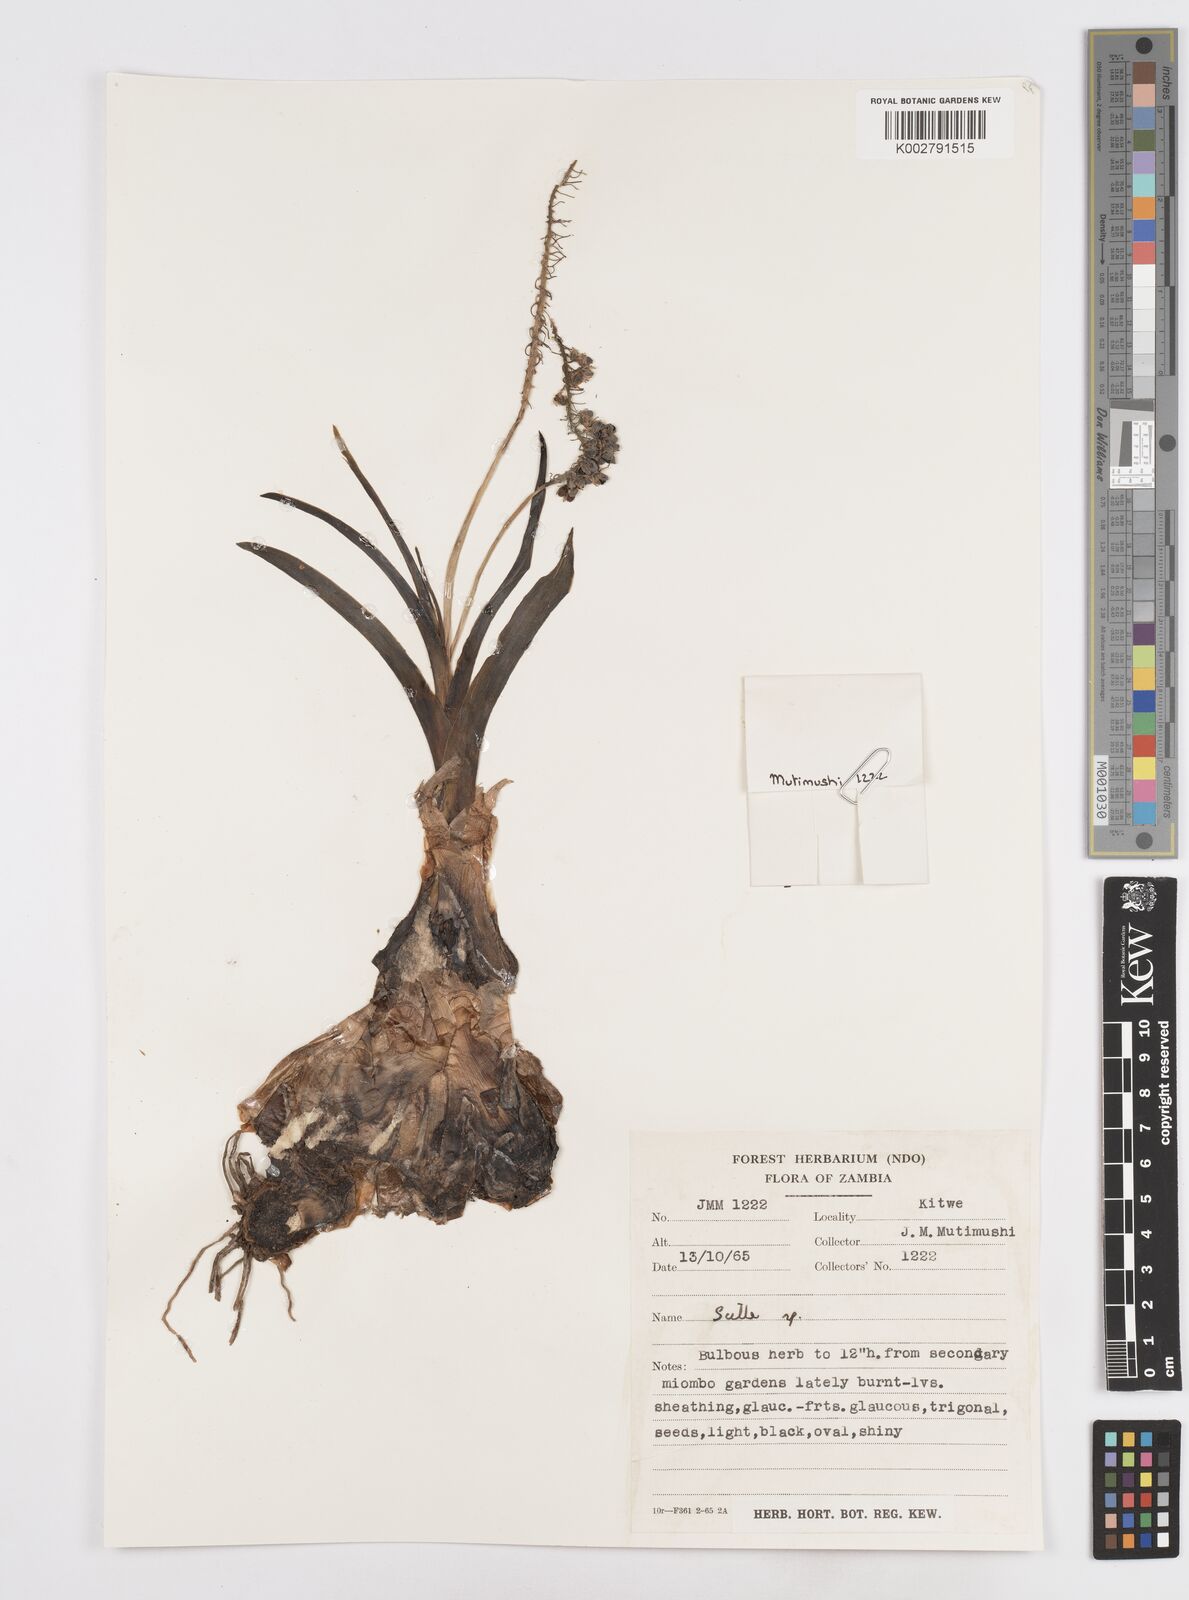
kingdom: Plantae
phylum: Tracheophyta
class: Liliopsida
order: Asparagales
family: Asparagaceae
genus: Scilla
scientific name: Scilla
